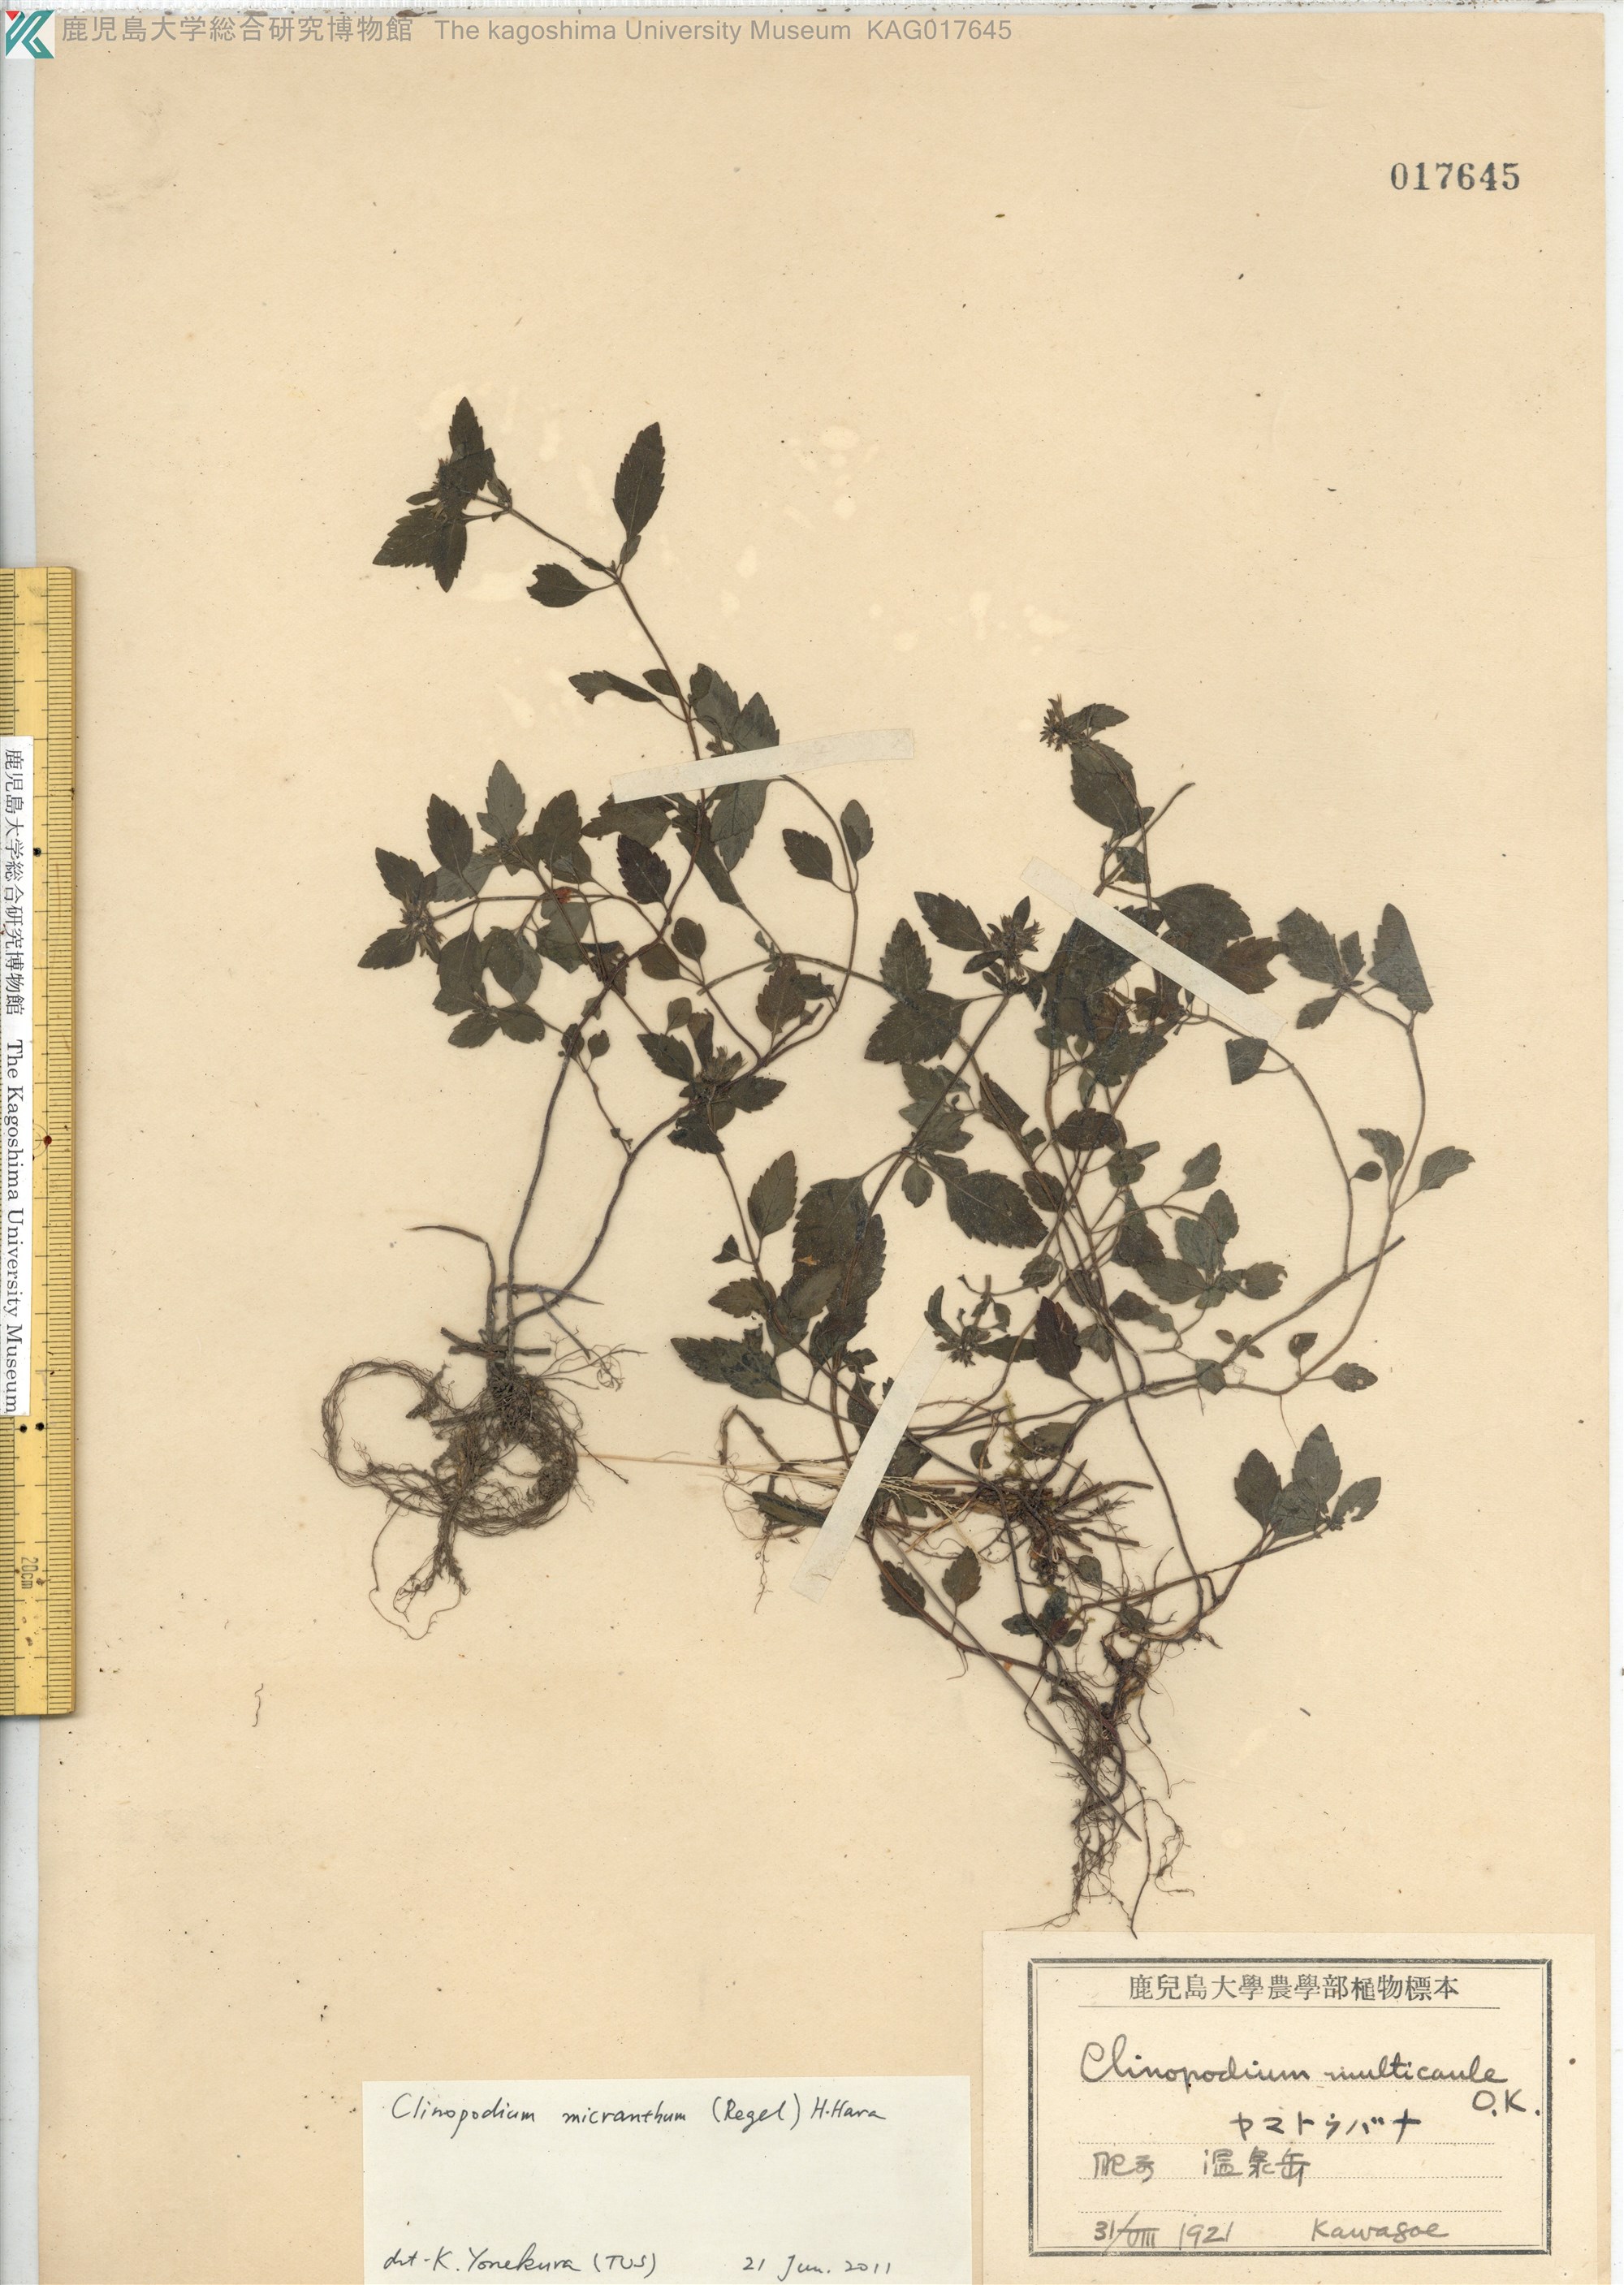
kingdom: Plantae
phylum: Tracheophyta
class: Magnoliopsida
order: Lamiales
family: Lamiaceae
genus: Clinopodium
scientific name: Clinopodium micranthum
